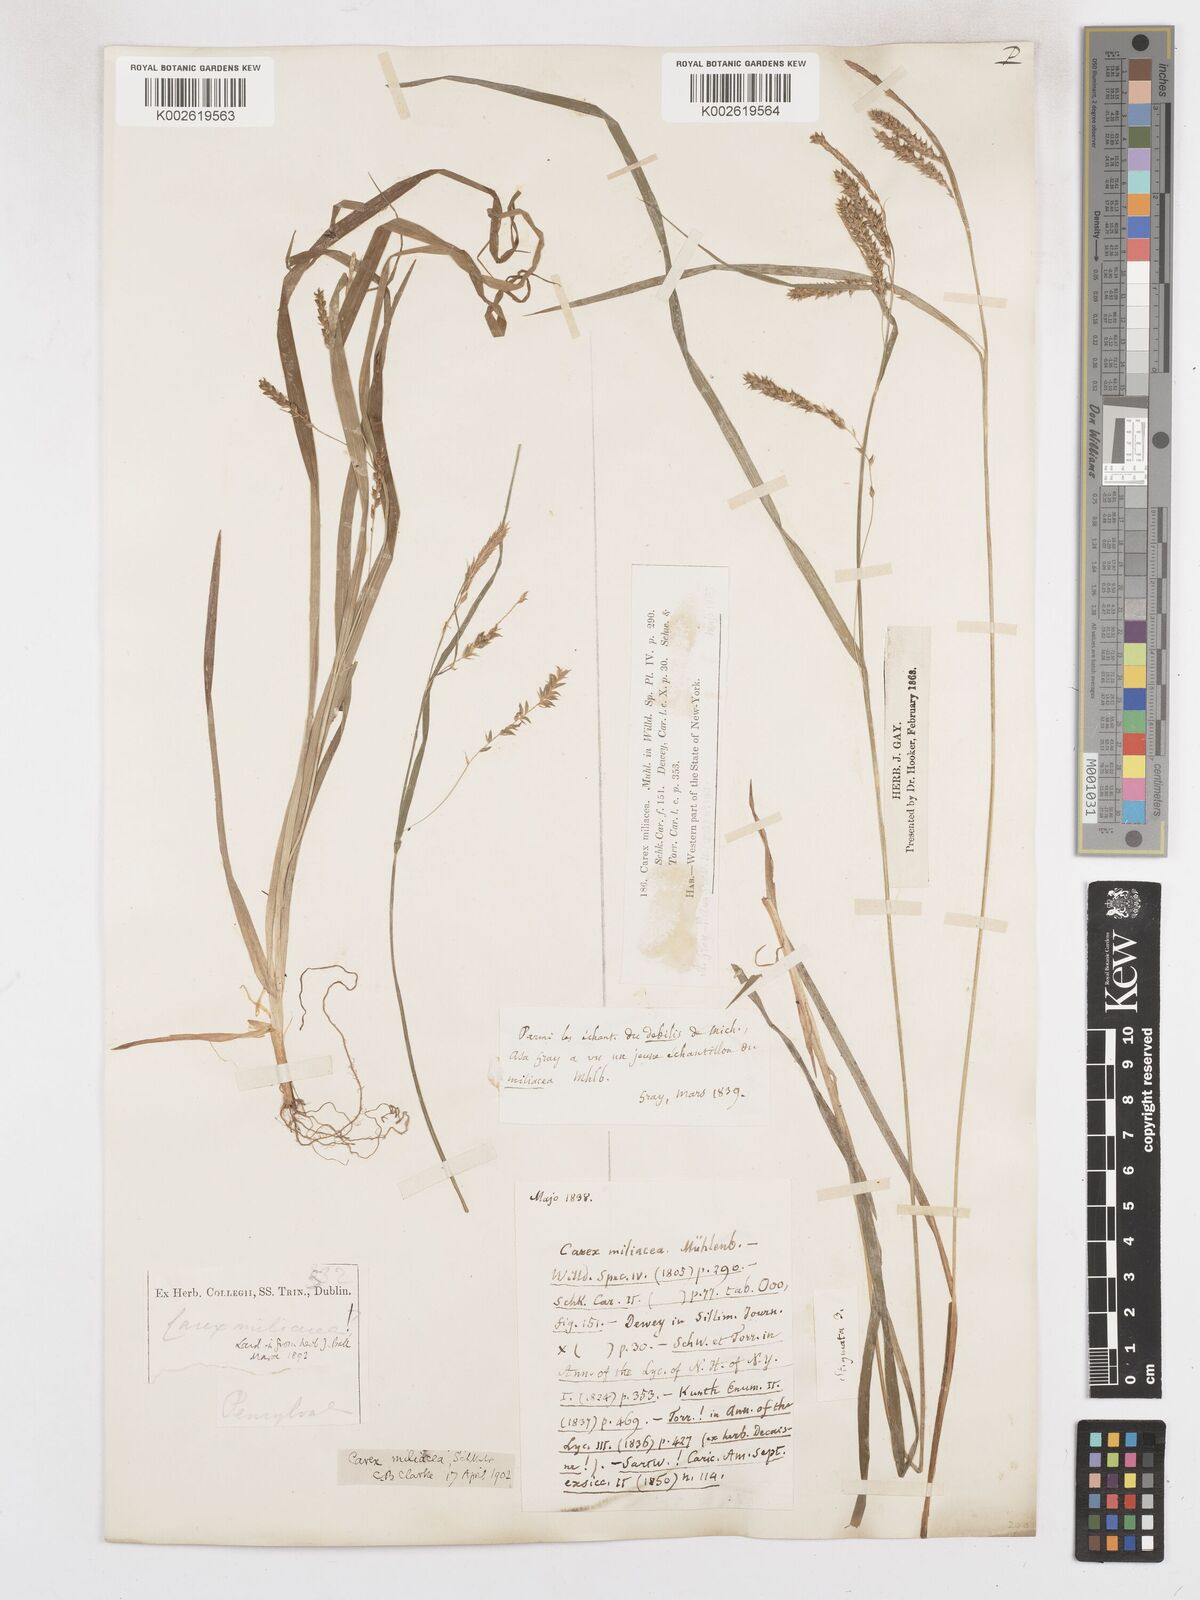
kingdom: Plantae
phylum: Tracheophyta
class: Liliopsida
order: Poales
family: Cyperaceae
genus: Carex
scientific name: Carex prasina
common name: Drooping sedge
